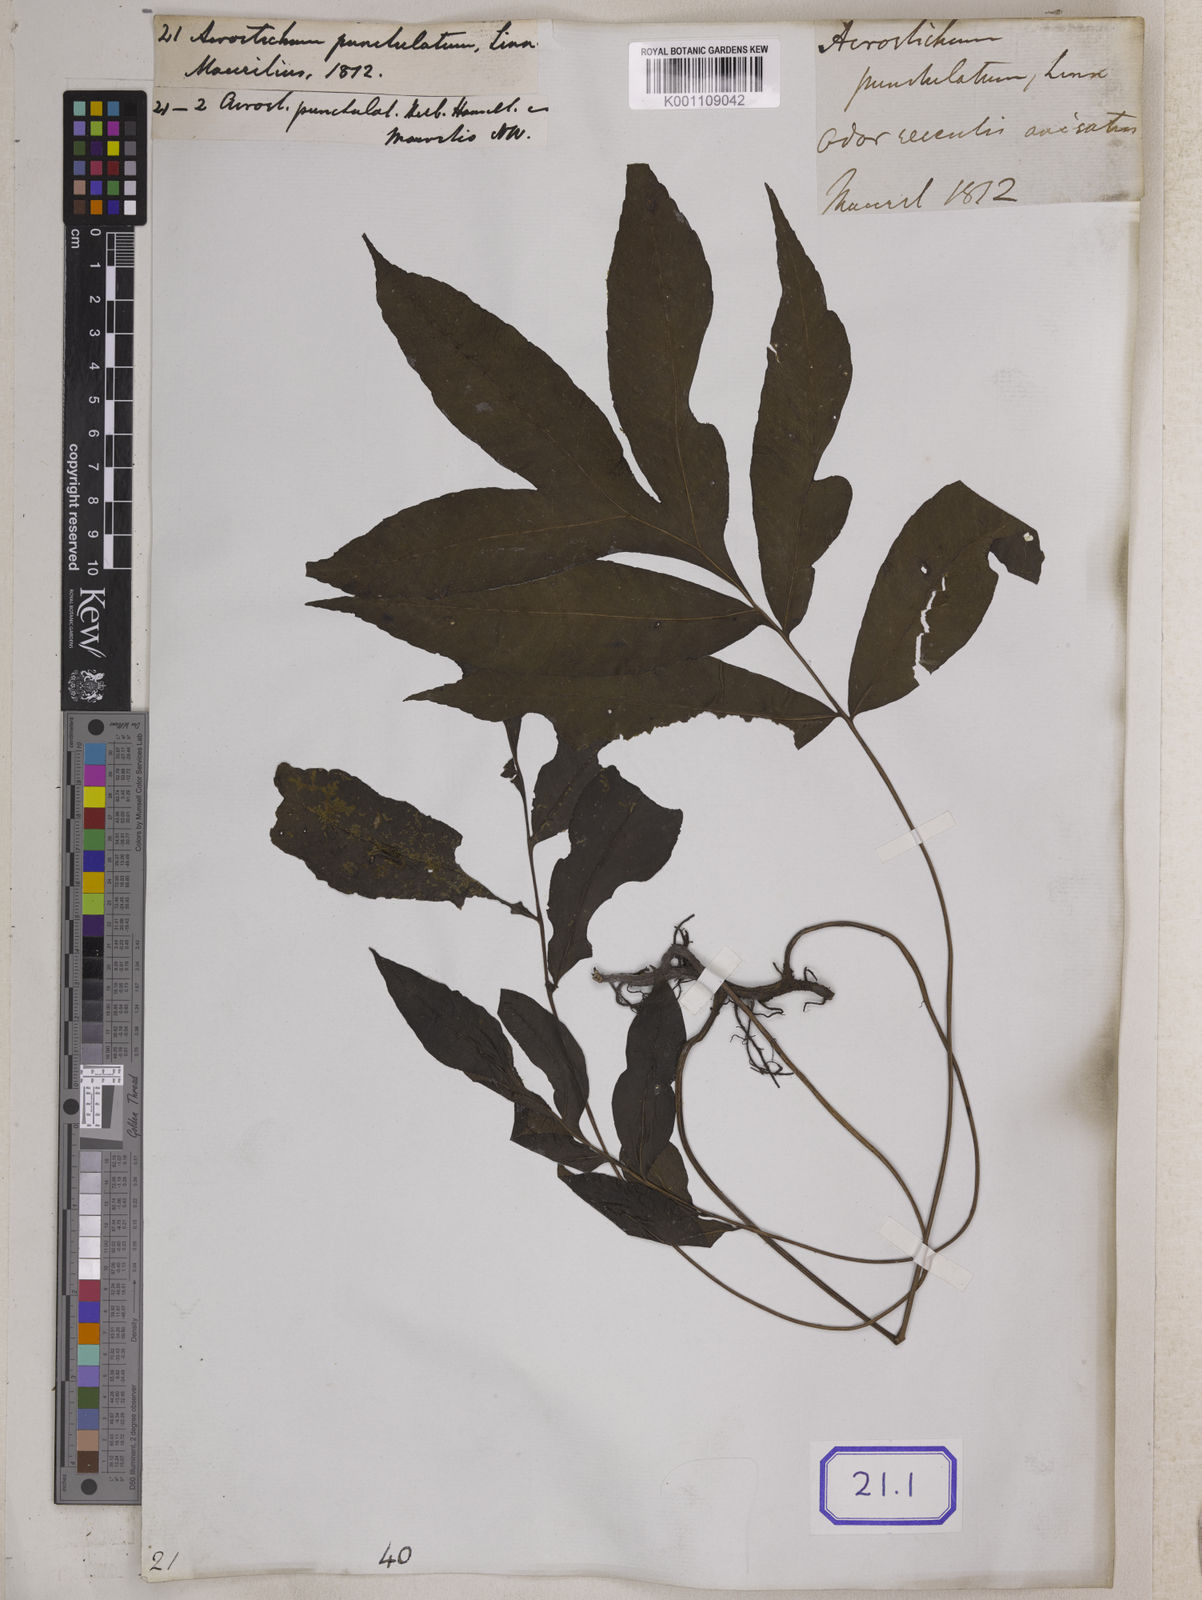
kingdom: Plantae
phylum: Tracheophyta
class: Polypodiopsida
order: Polypodiales
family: Pteridaceae
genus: Acrostichum
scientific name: Acrostichum
